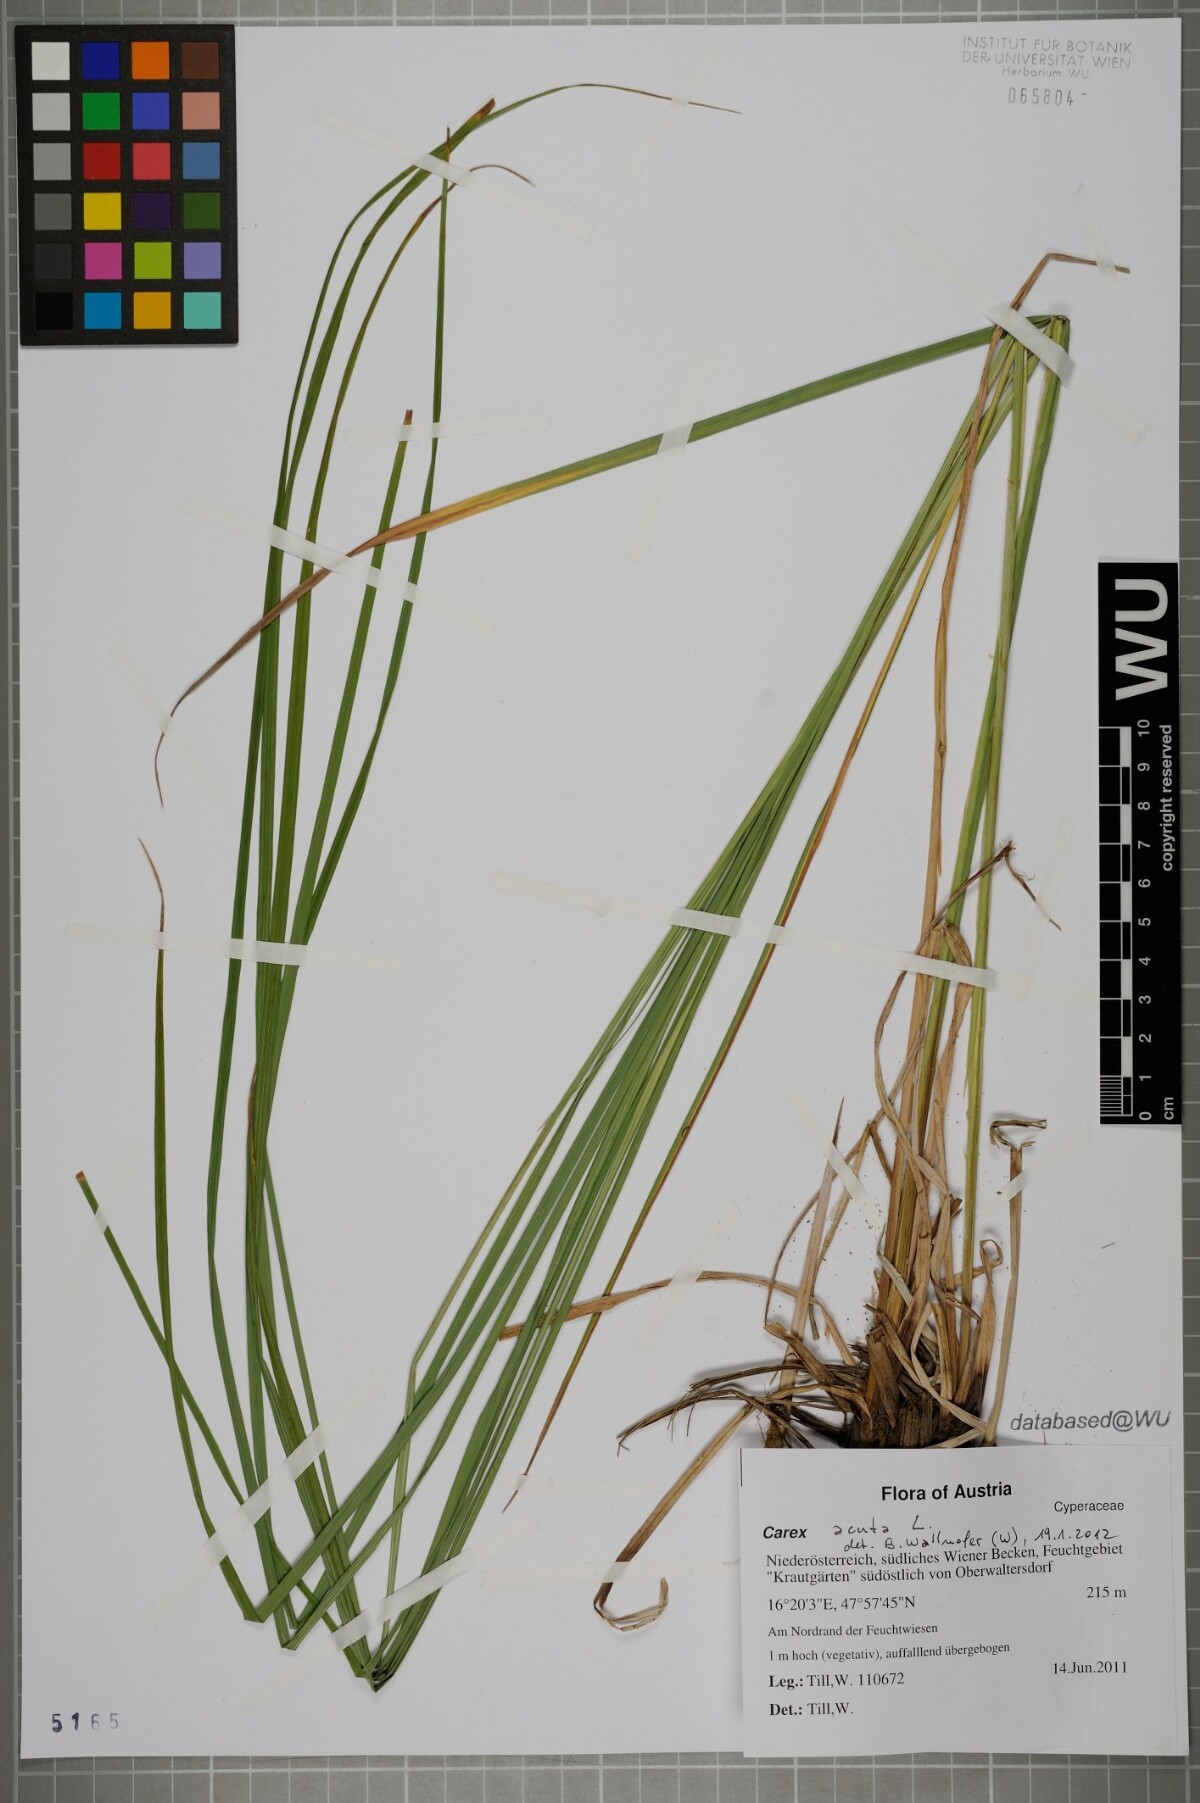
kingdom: Plantae
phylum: Tracheophyta
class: Liliopsida
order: Poales
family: Cyperaceae
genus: Carex
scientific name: Carex acuta
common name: Slender tufted-sedge
